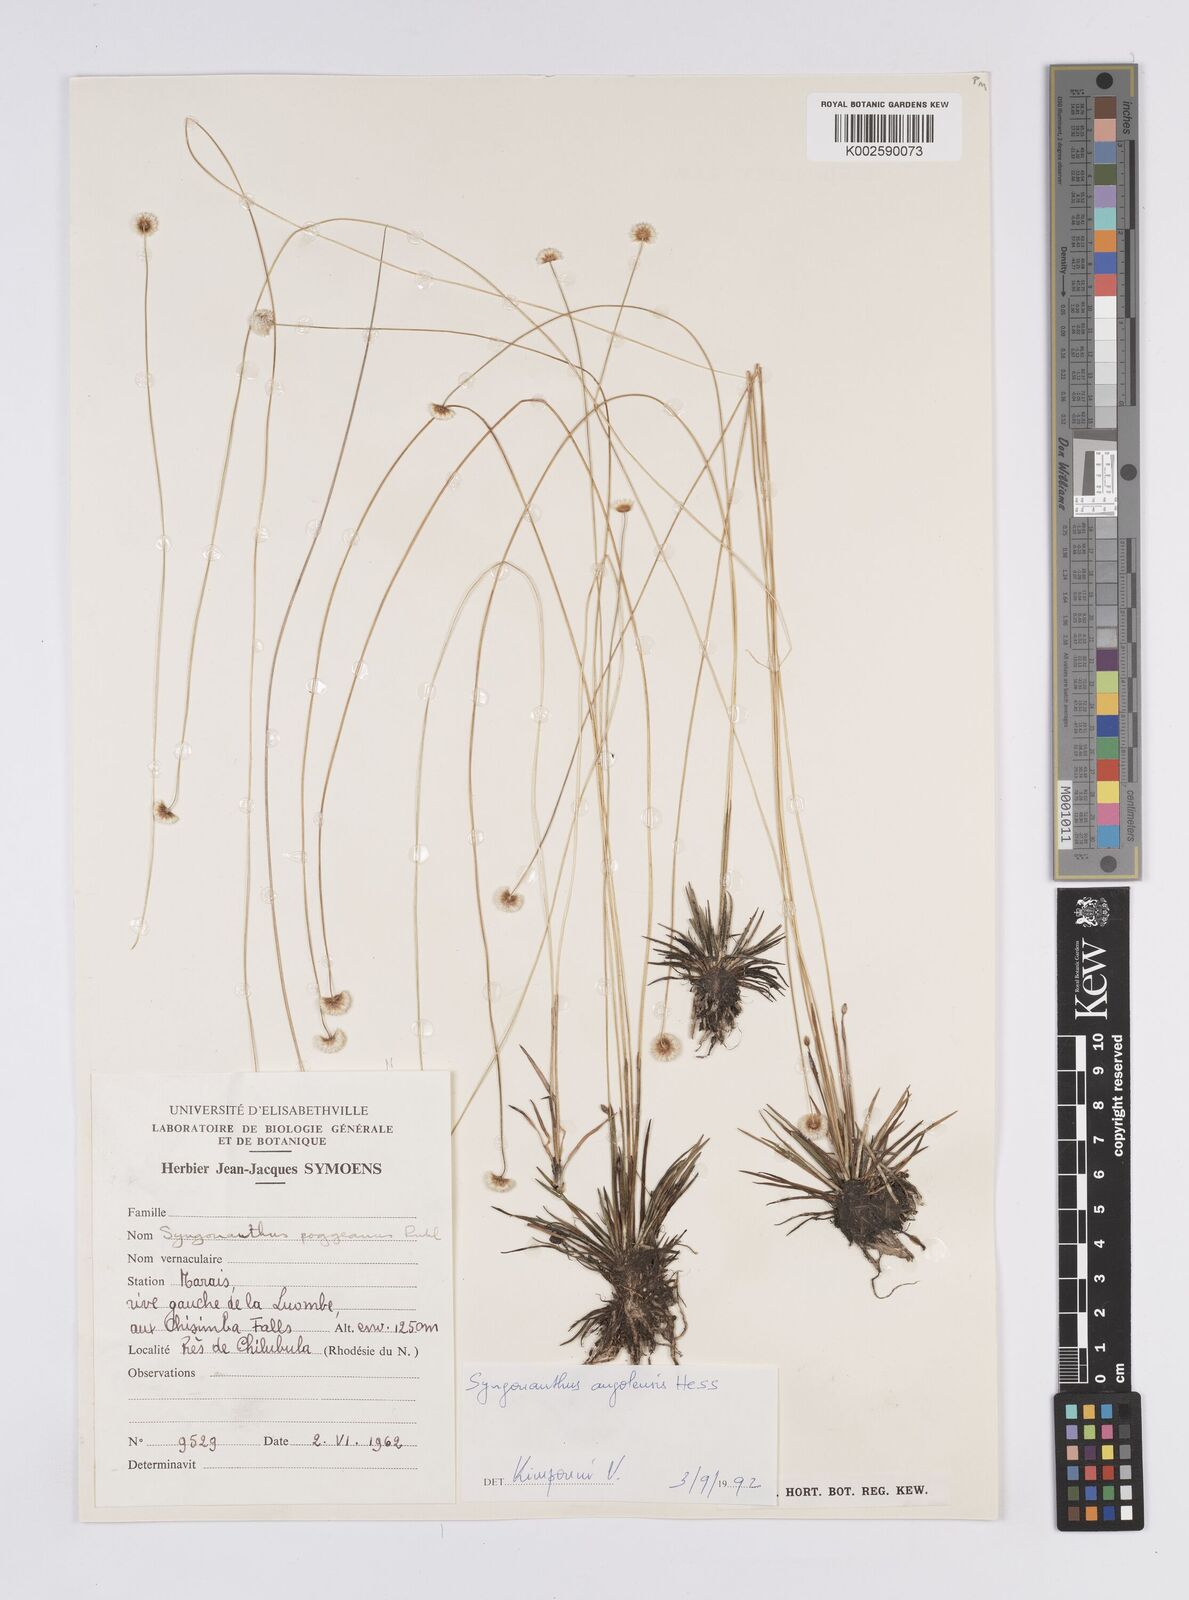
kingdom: Plantae
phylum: Tracheophyta
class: Liliopsida
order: Poales
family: Eriocaulaceae
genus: Syngonanthus
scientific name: Syngonanthus angolensis
